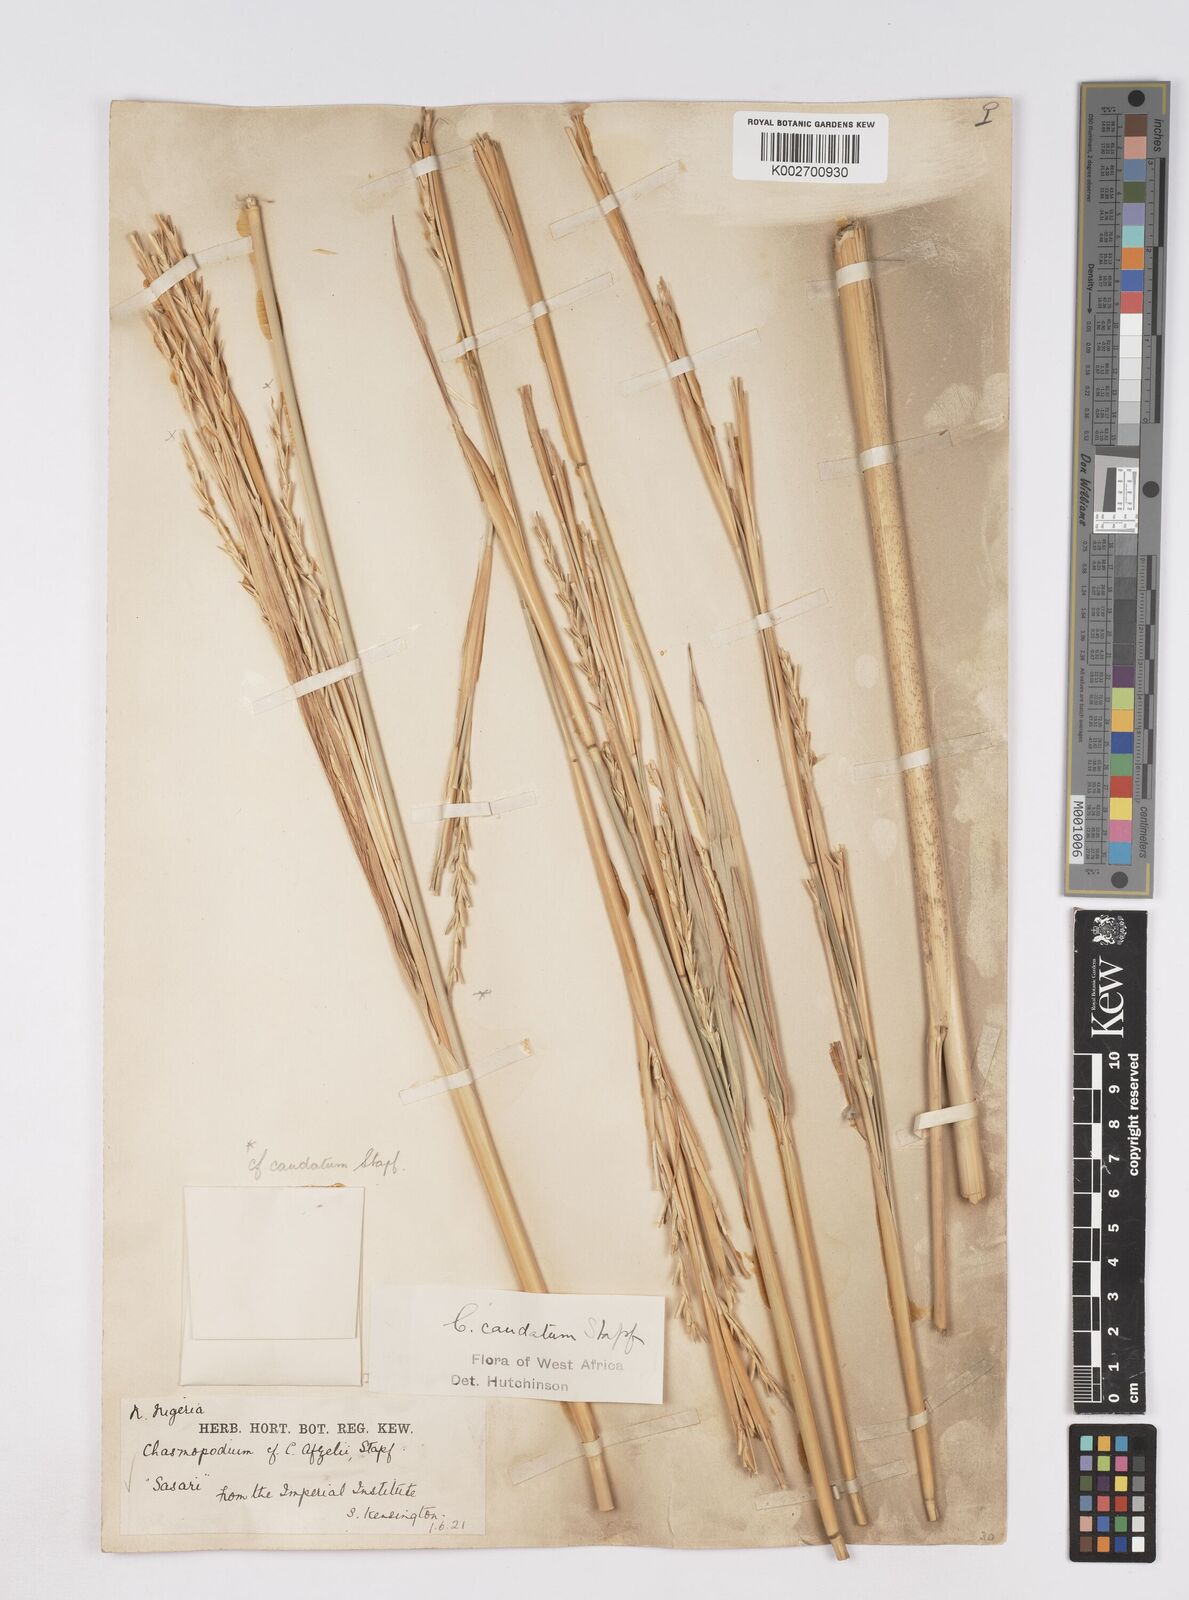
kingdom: Plantae
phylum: Tracheophyta
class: Liliopsida
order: Poales
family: Poaceae
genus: Chasmopodium
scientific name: Chasmopodium caudatum
